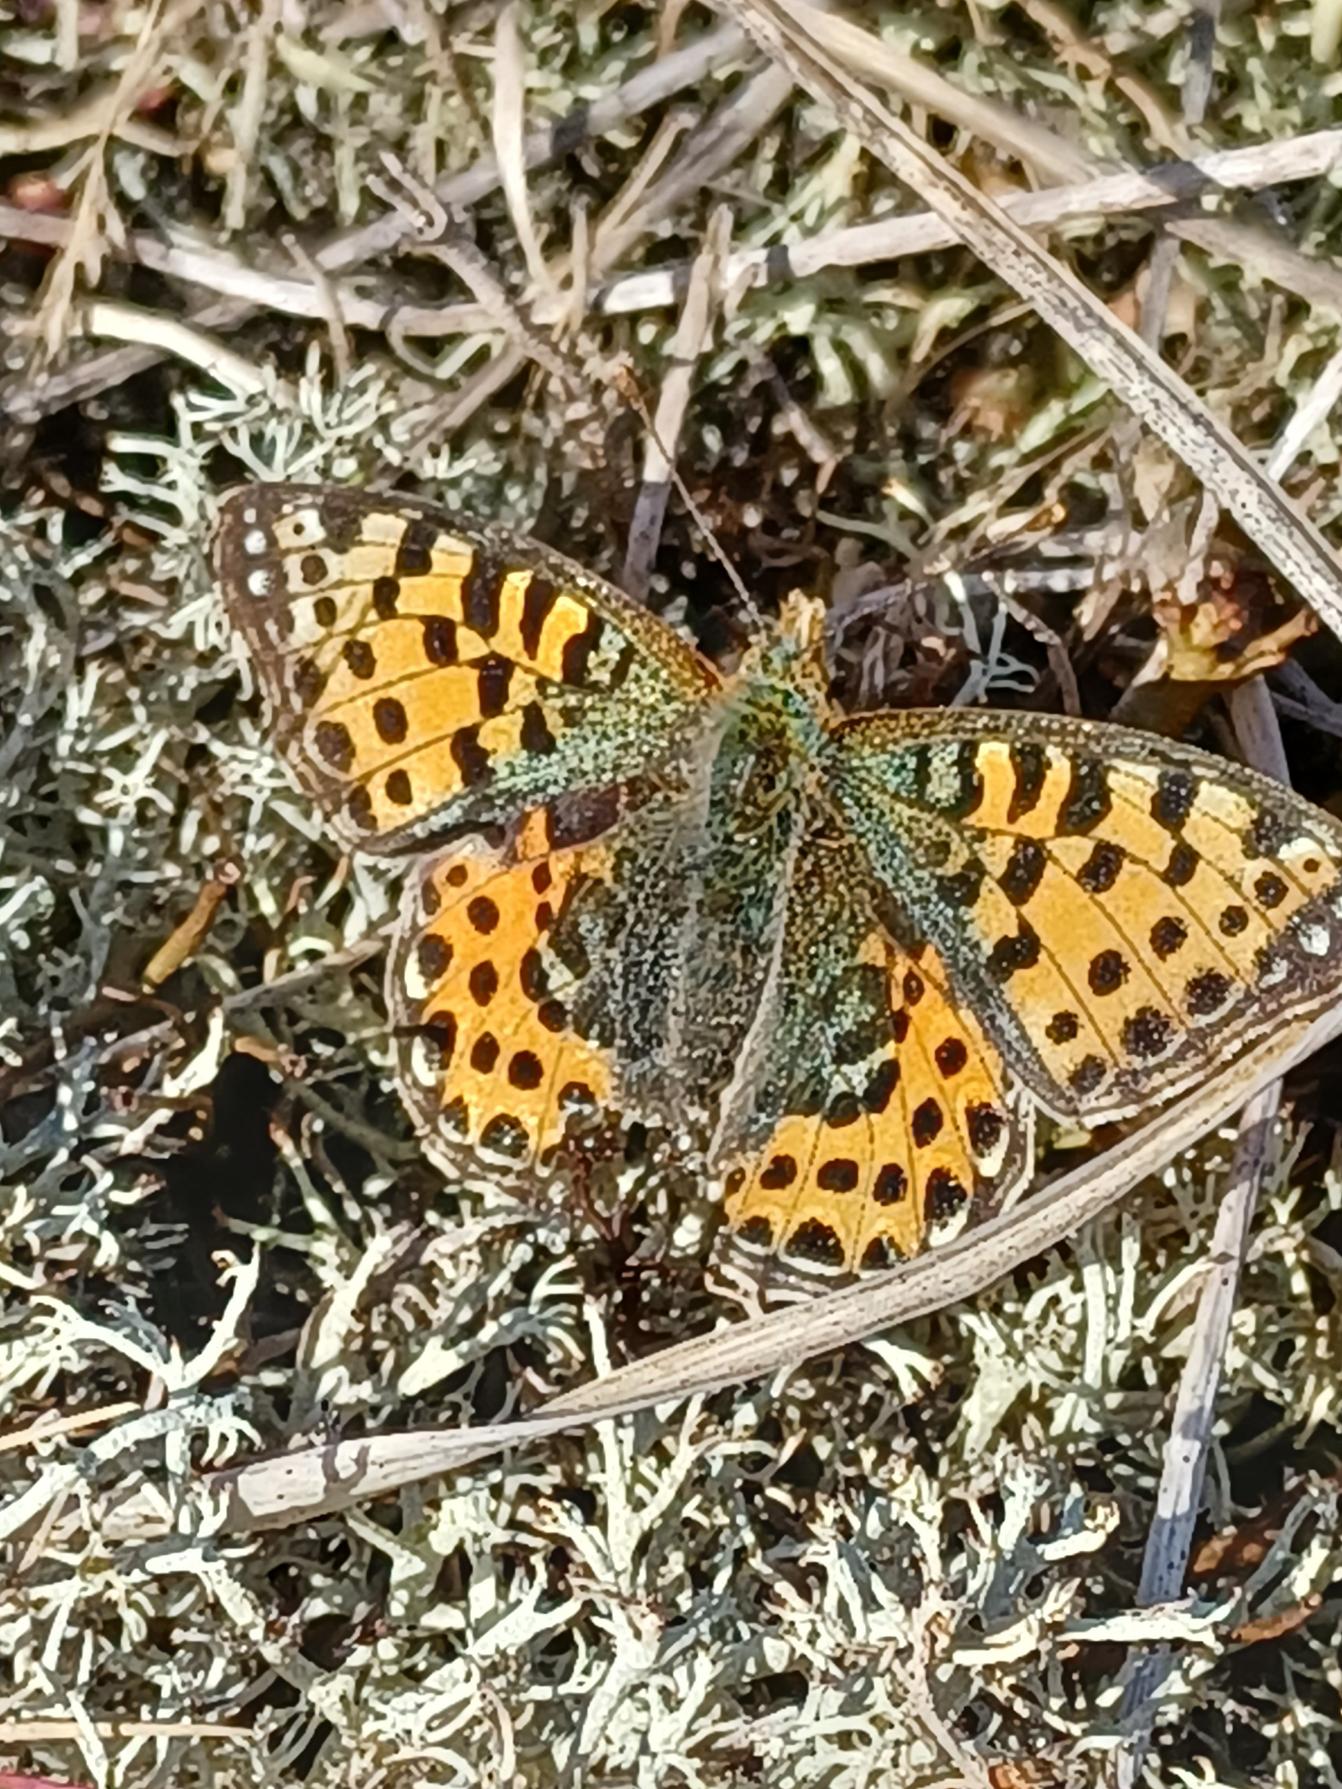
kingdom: Animalia
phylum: Arthropoda
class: Insecta
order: Lepidoptera
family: Nymphalidae
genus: Issoria
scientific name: Issoria lathonia
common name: Storplettet perlemorsommerfugl
